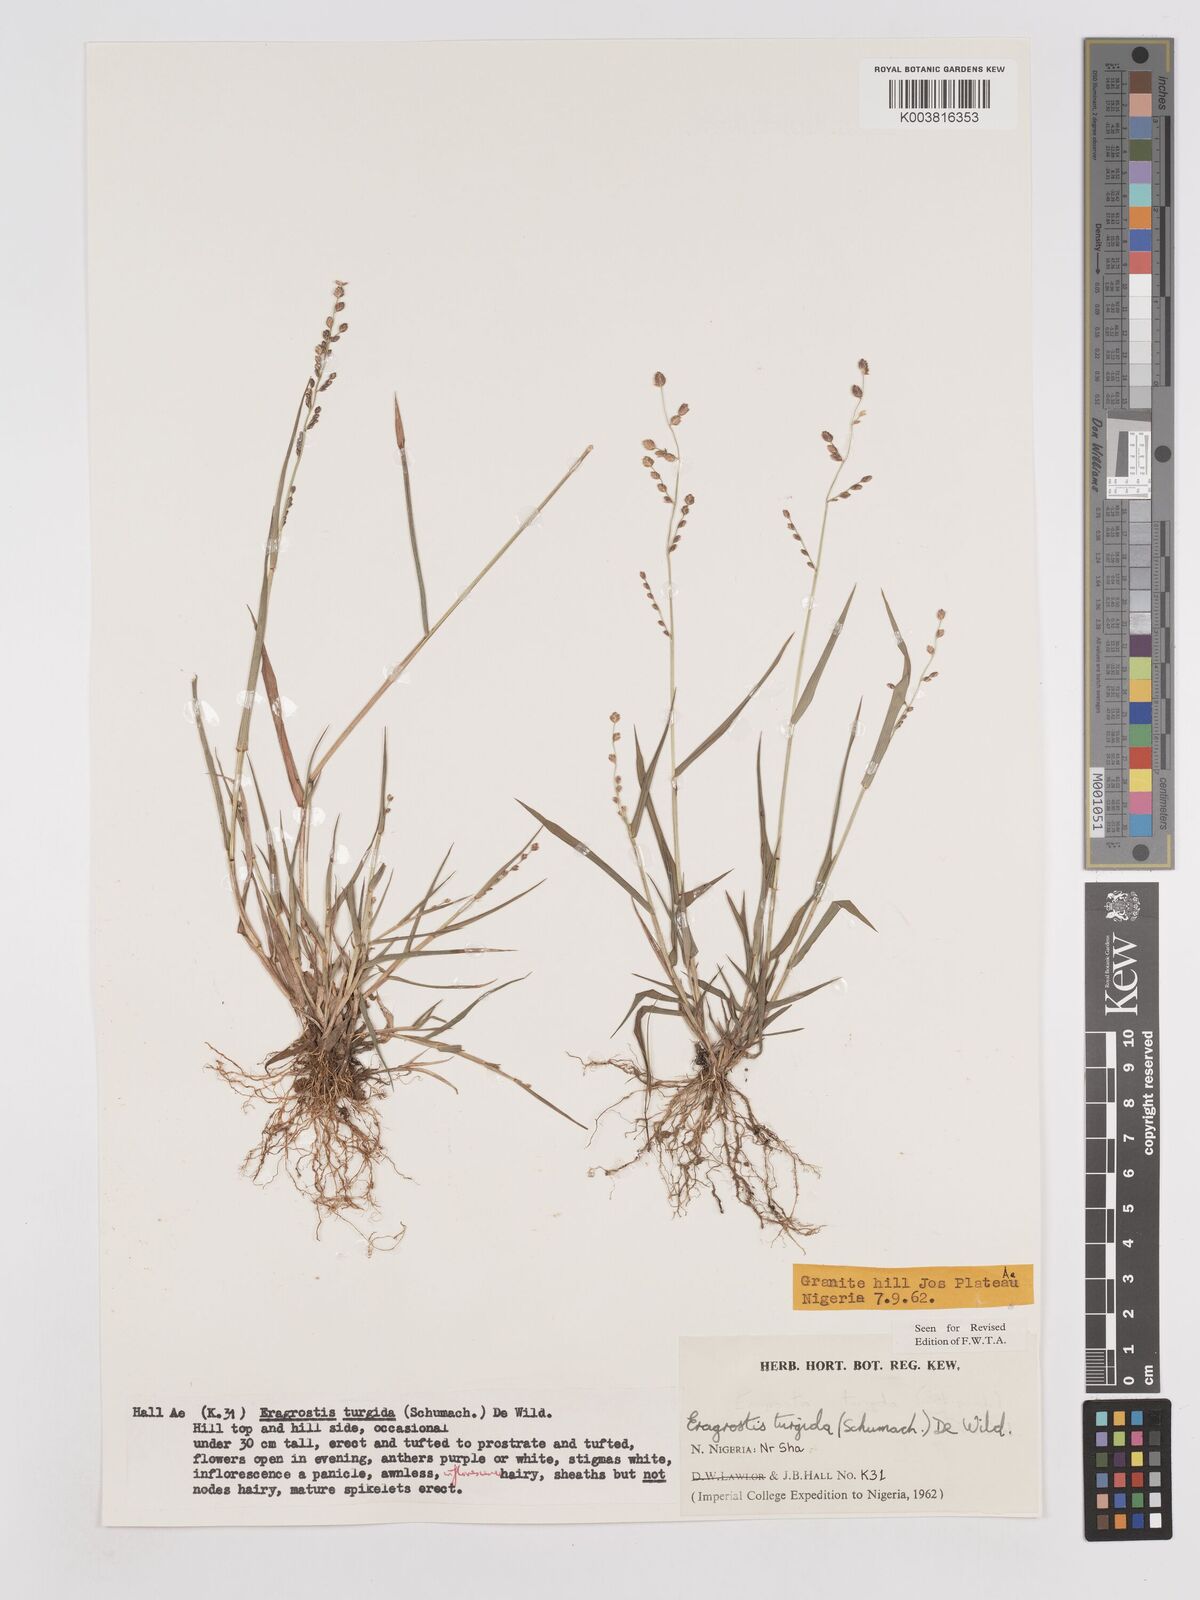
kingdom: Plantae
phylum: Tracheophyta
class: Liliopsida
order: Poales
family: Poaceae
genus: Eragrostis
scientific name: Eragrostis turgida
